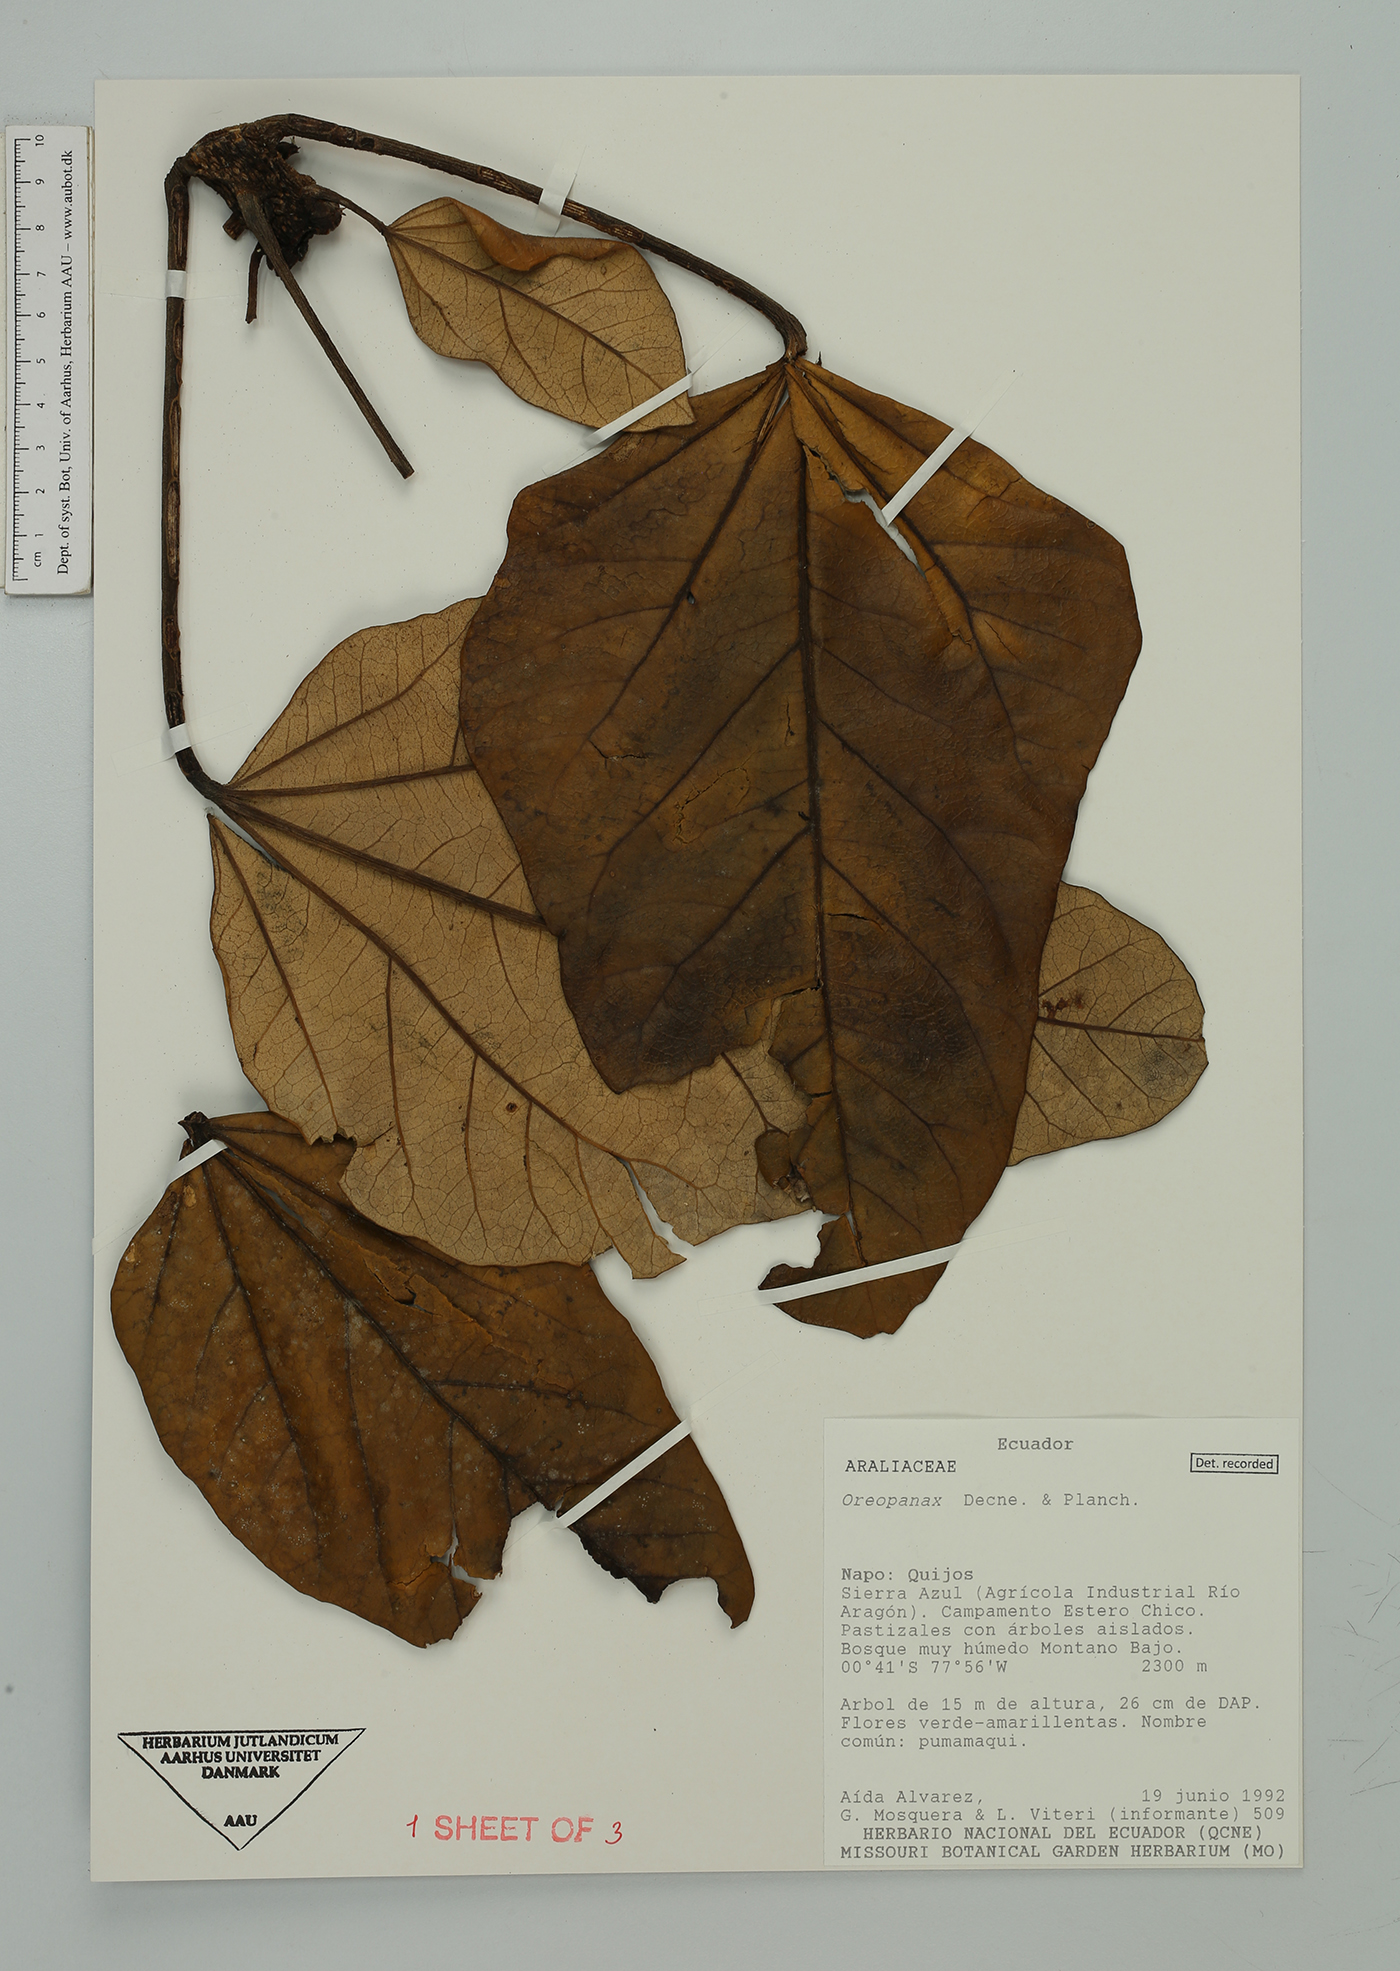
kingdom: Plantae
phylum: Tracheophyta
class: Magnoliopsida
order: Apiales
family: Araliaceae
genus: Oreopanax
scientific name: Oreopanax
